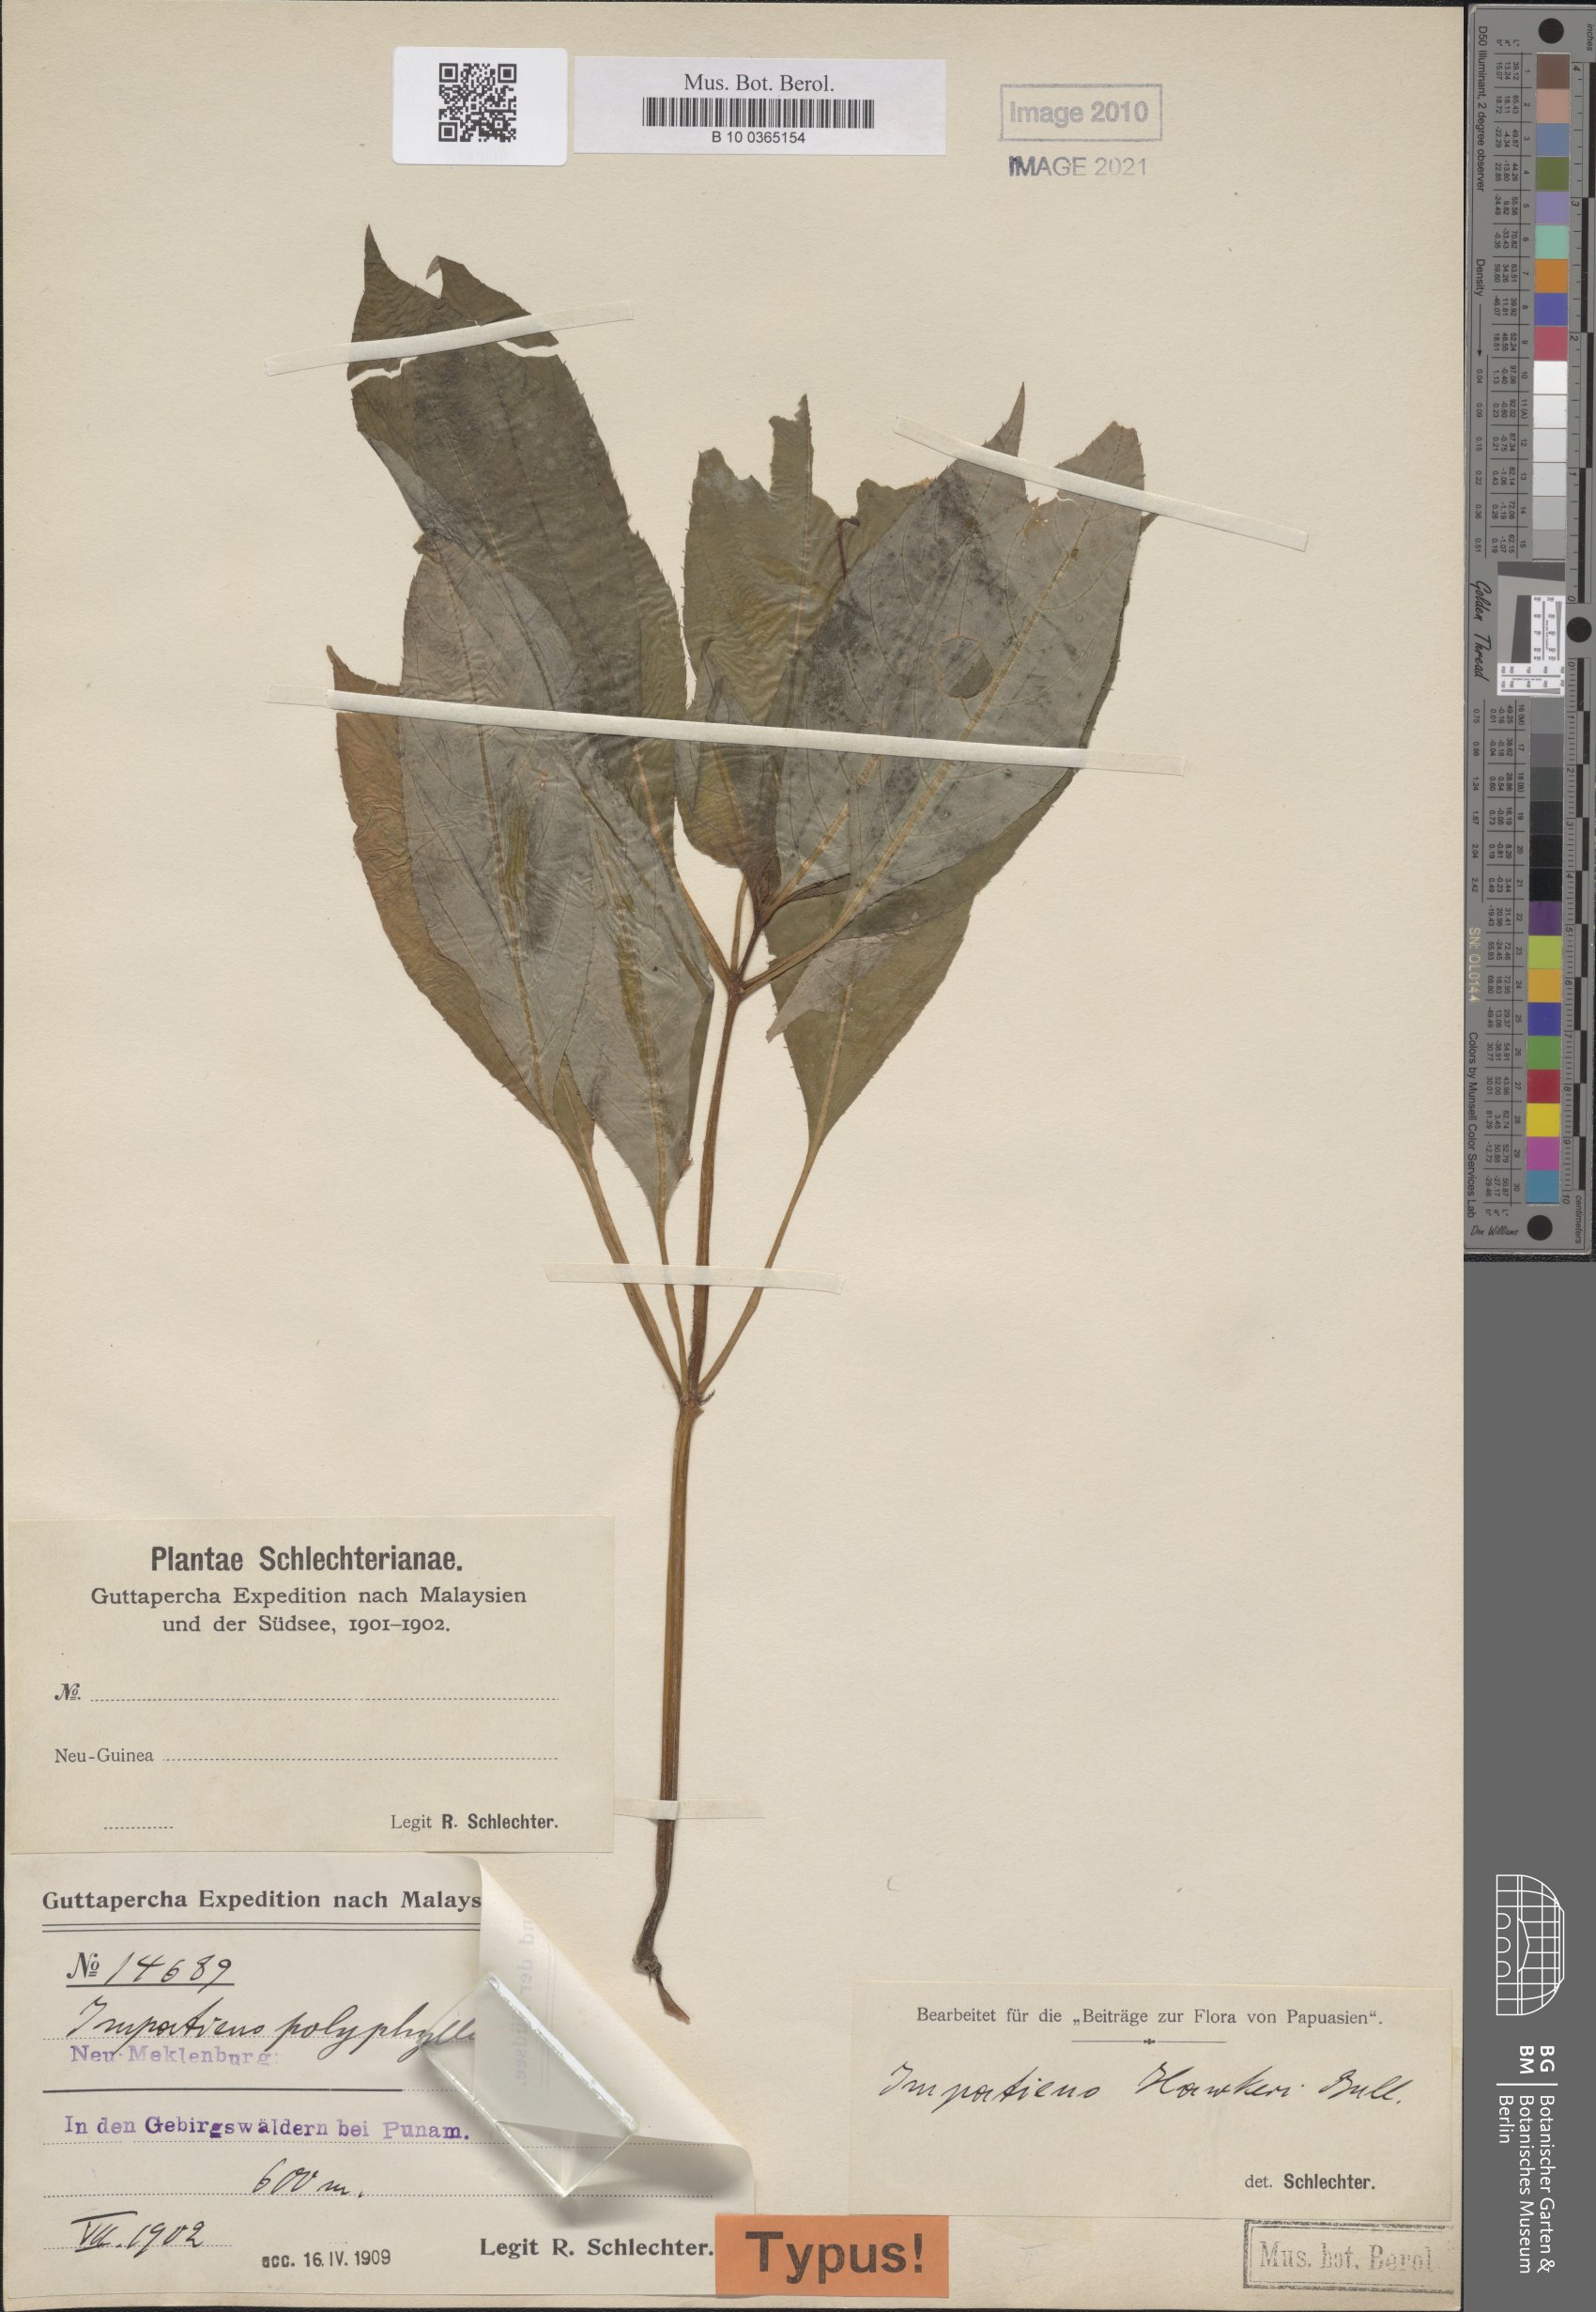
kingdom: Plantae
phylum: Tracheophyta
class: Magnoliopsida
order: Ericales
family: Balsaminaceae
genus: Impatiens
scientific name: Impatiens hawkeri
